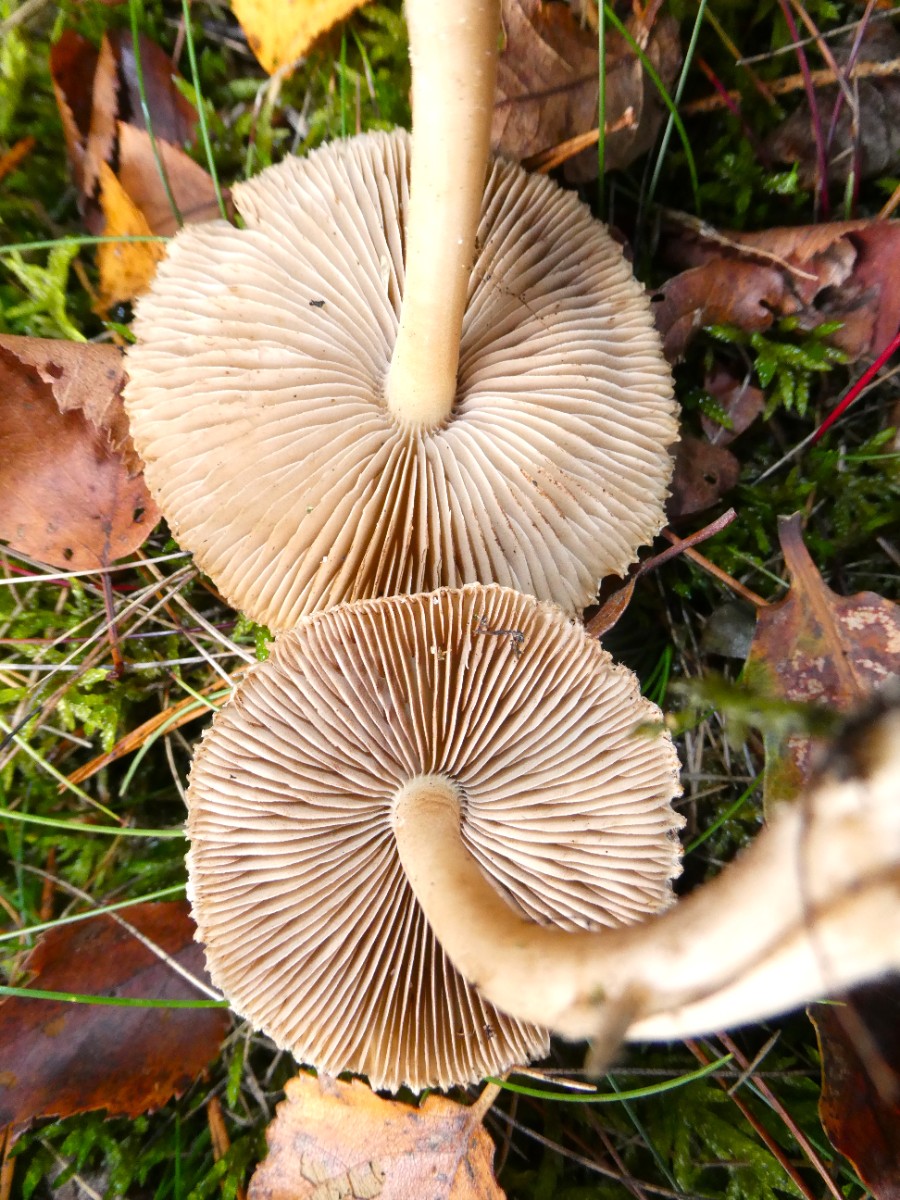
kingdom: Fungi
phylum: Basidiomycota
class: Agaricomycetes
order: Agaricales
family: Inocybaceae
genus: Inocybe
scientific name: Inocybe sindonia
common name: bleg trævlhat
